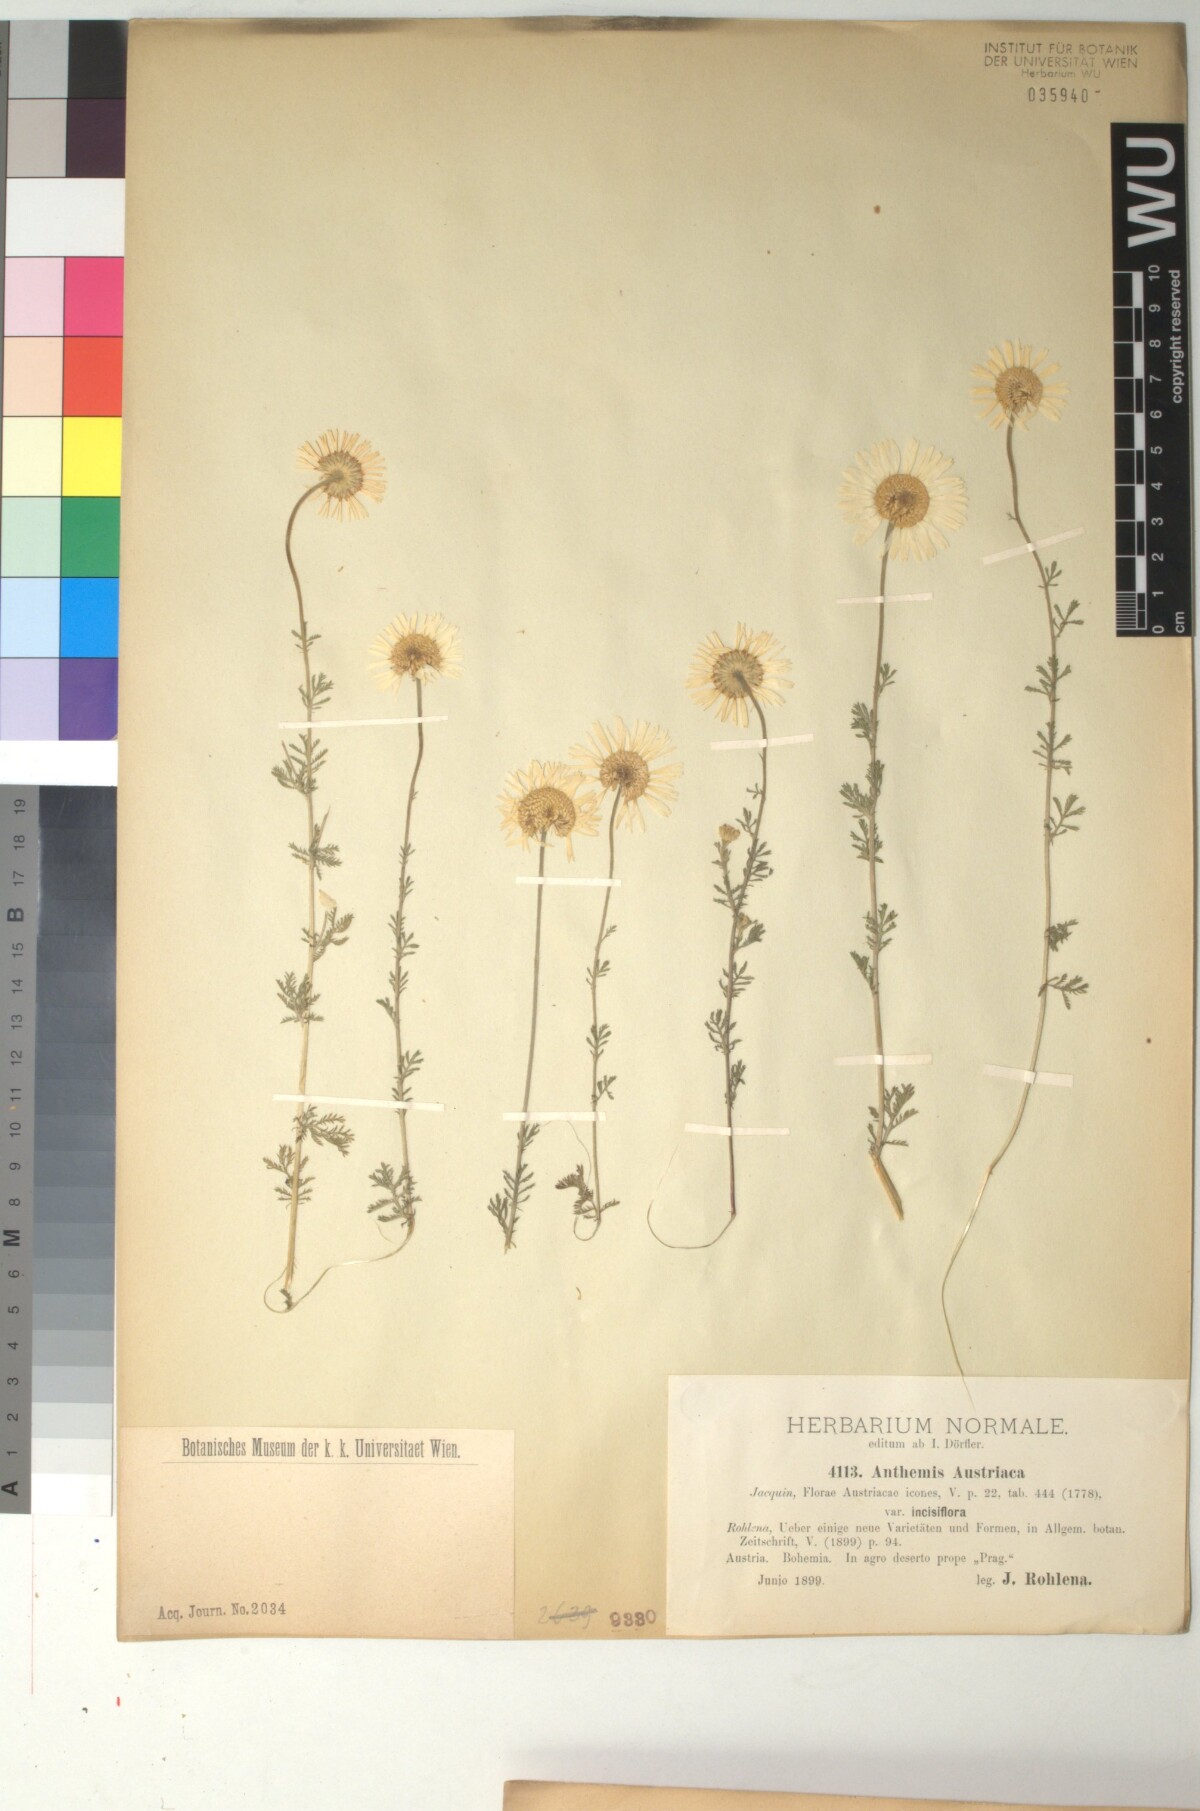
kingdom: Plantae
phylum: Tracheophyta
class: Magnoliopsida
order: Asterales
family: Asteraceae
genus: Cota
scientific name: Cota austriaca
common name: Austrian chamomile
